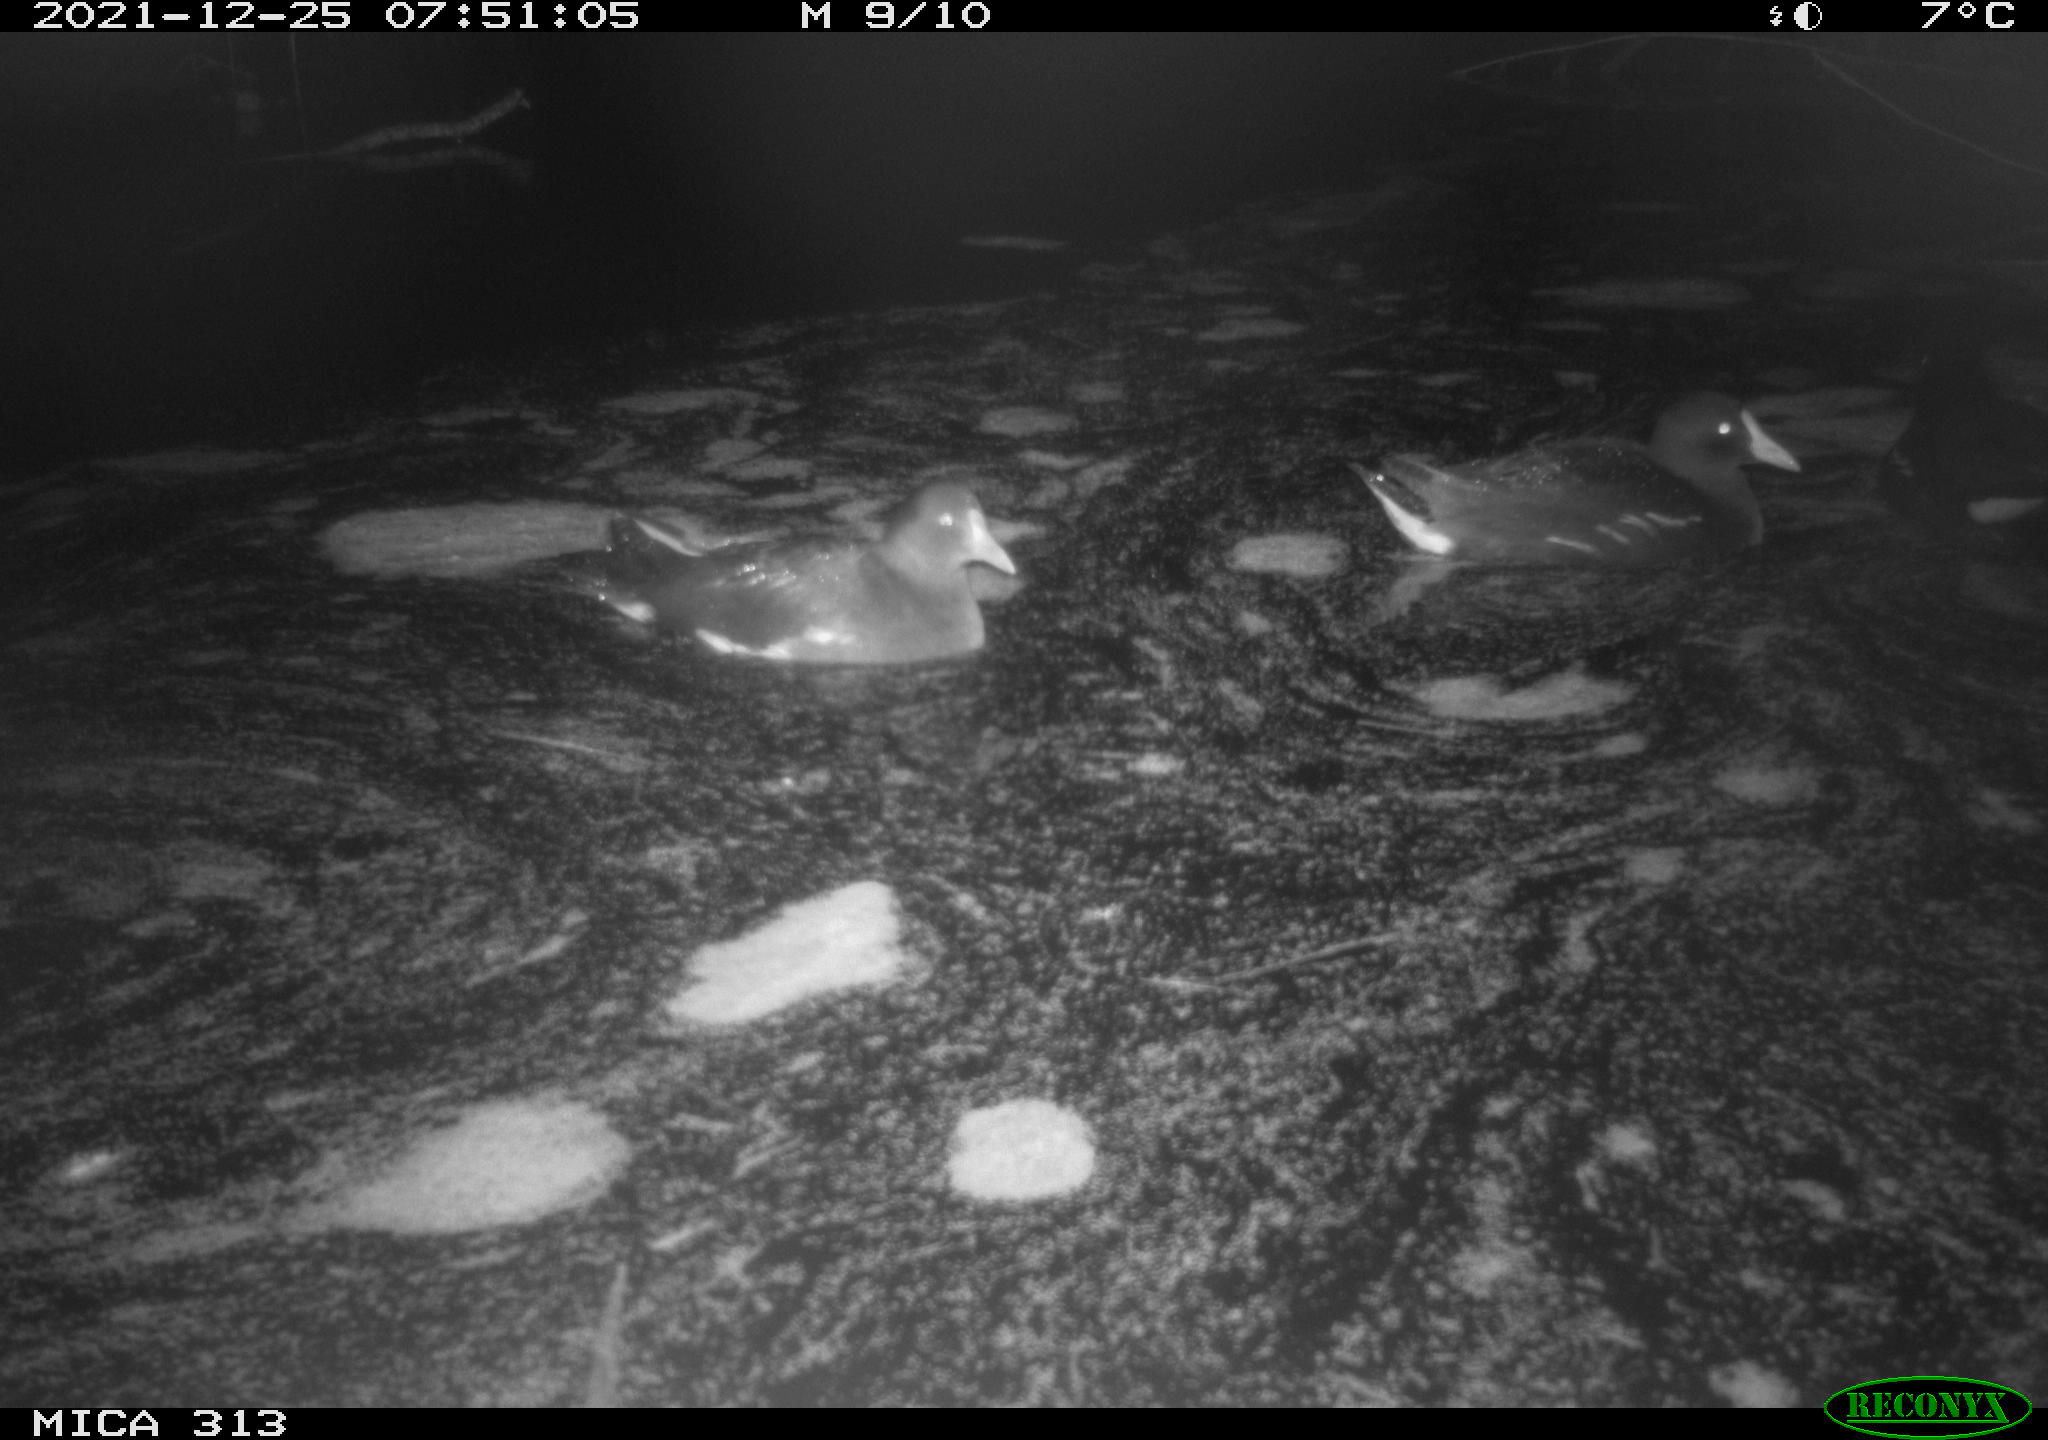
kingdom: Animalia
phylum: Chordata
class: Aves
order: Gruiformes
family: Rallidae
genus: Gallinula
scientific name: Gallinula chloropus
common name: Common moorhen
